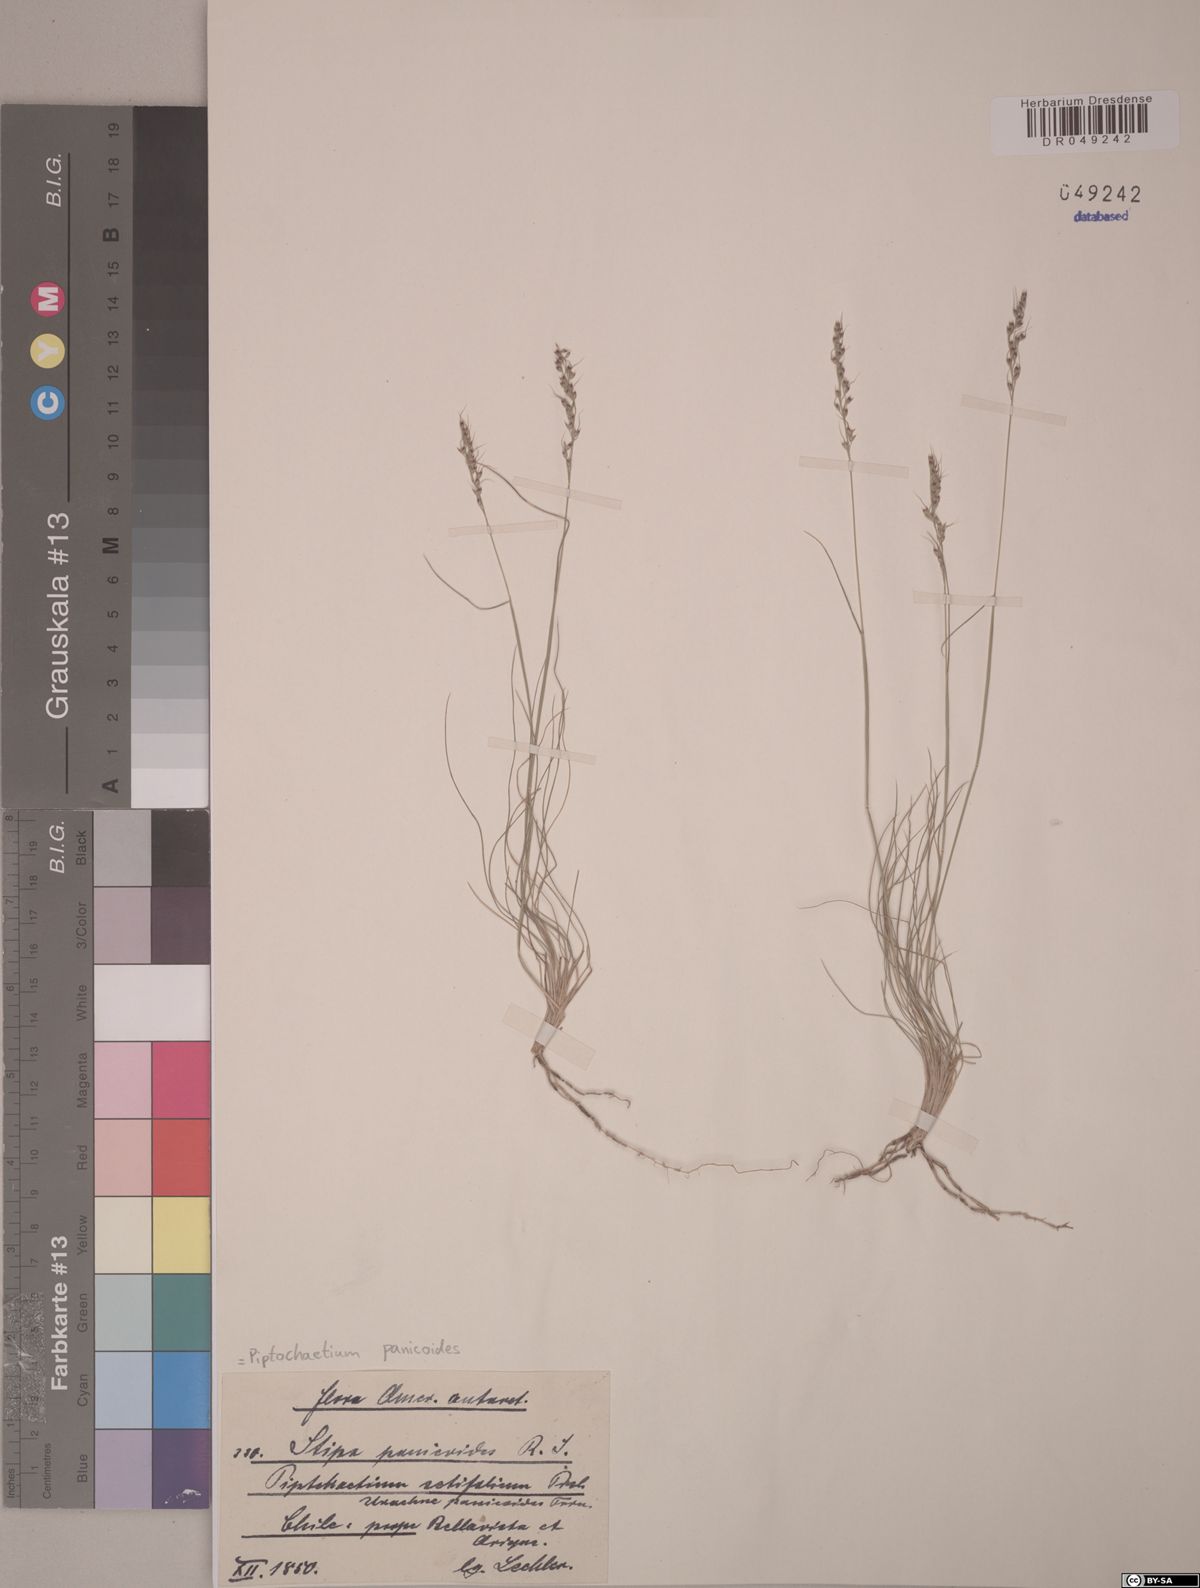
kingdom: Plantae
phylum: Tracheophyta
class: Liliopsida
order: Poales
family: Poaceae
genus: Piptochaetium
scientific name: Piptochaetium panicoides
